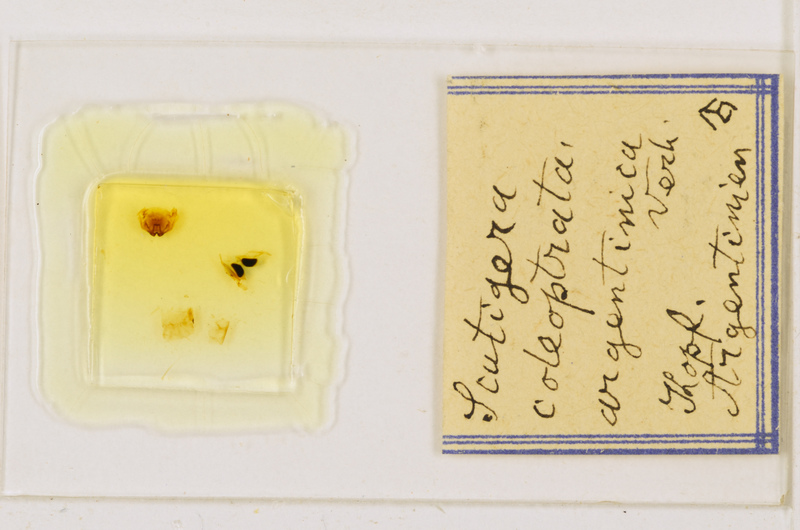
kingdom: Animalia
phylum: Arthropoda
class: Chilopoda
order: Scutigeromorpha
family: Scutigeridae
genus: Scutigera
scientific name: Scutigera coleoptrata
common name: House centipede
